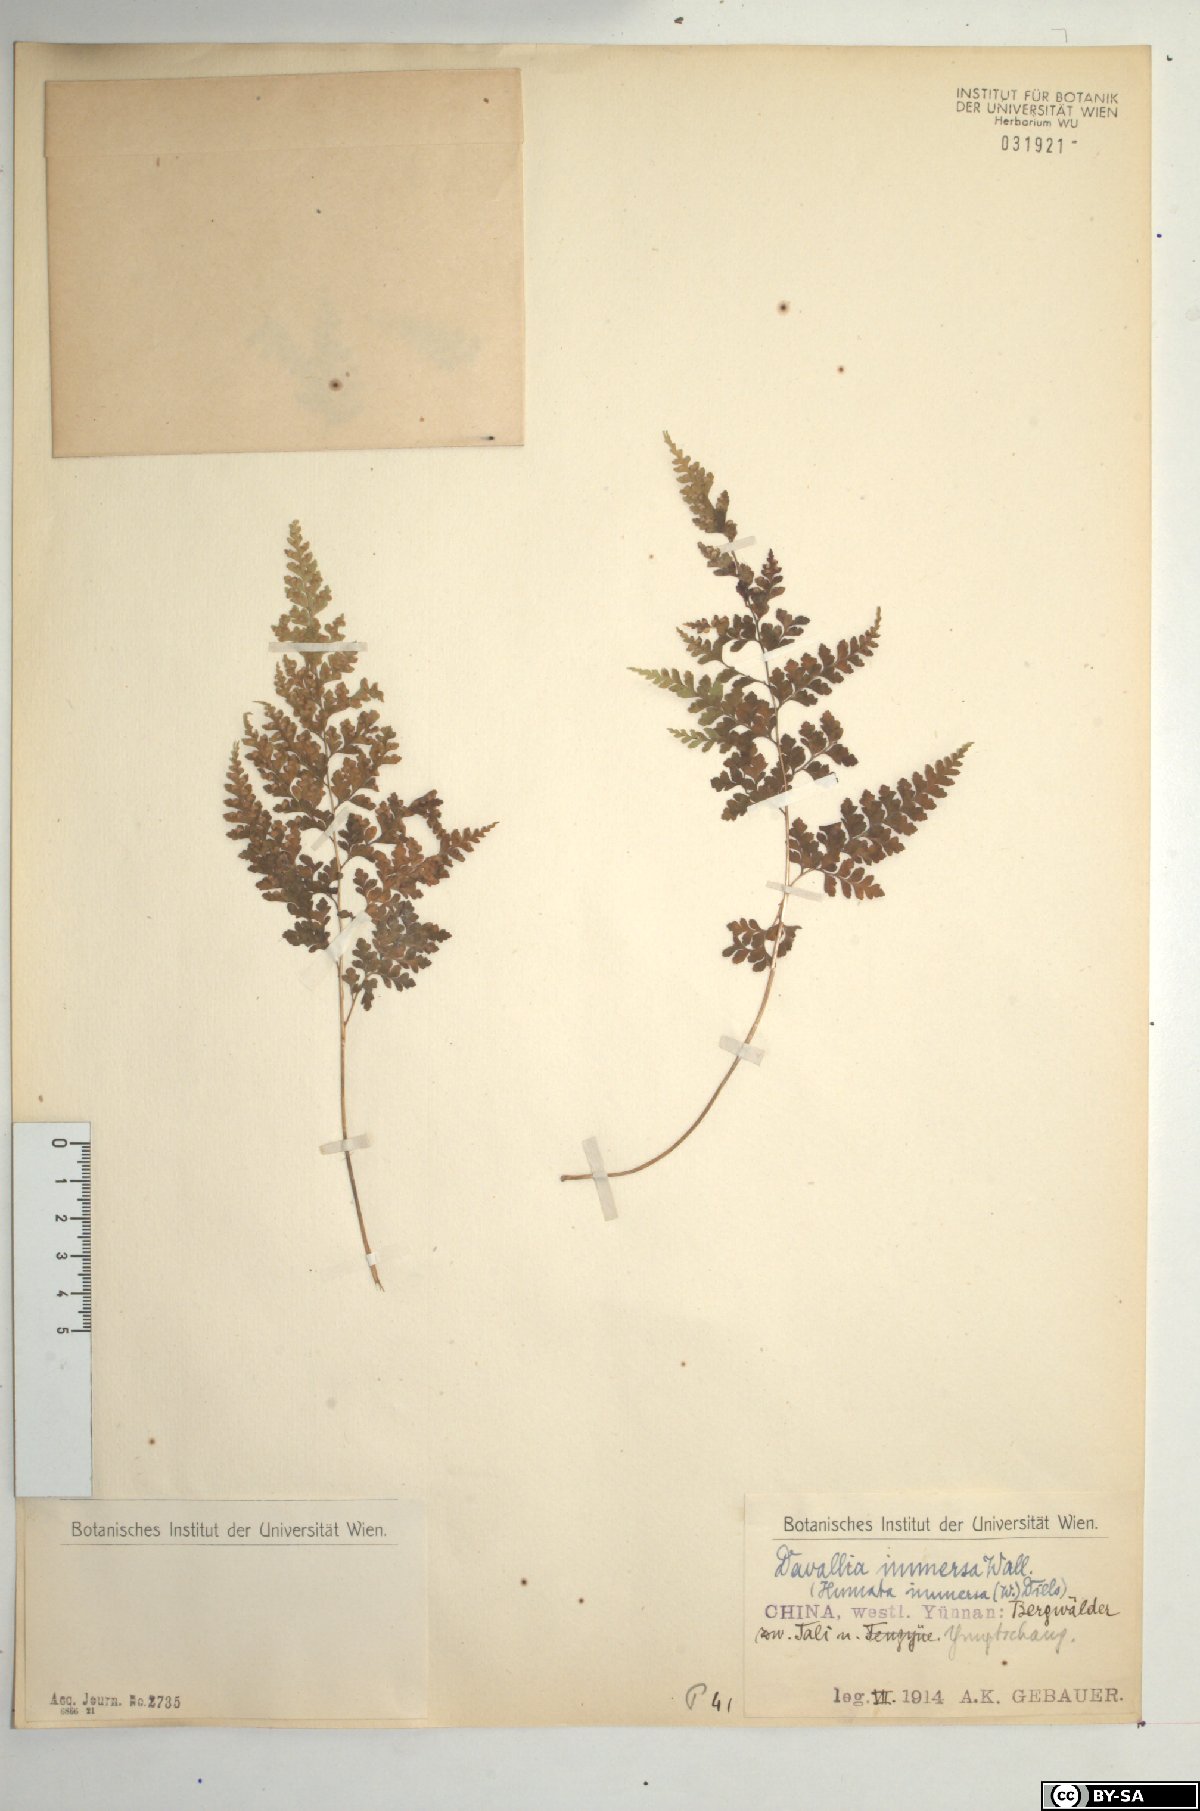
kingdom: Plantae
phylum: Tracheophyta
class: Polypodiopsida
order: Polypodiales
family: Hypodematiaceae
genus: Leucostegia
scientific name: Leucostegia immersa
